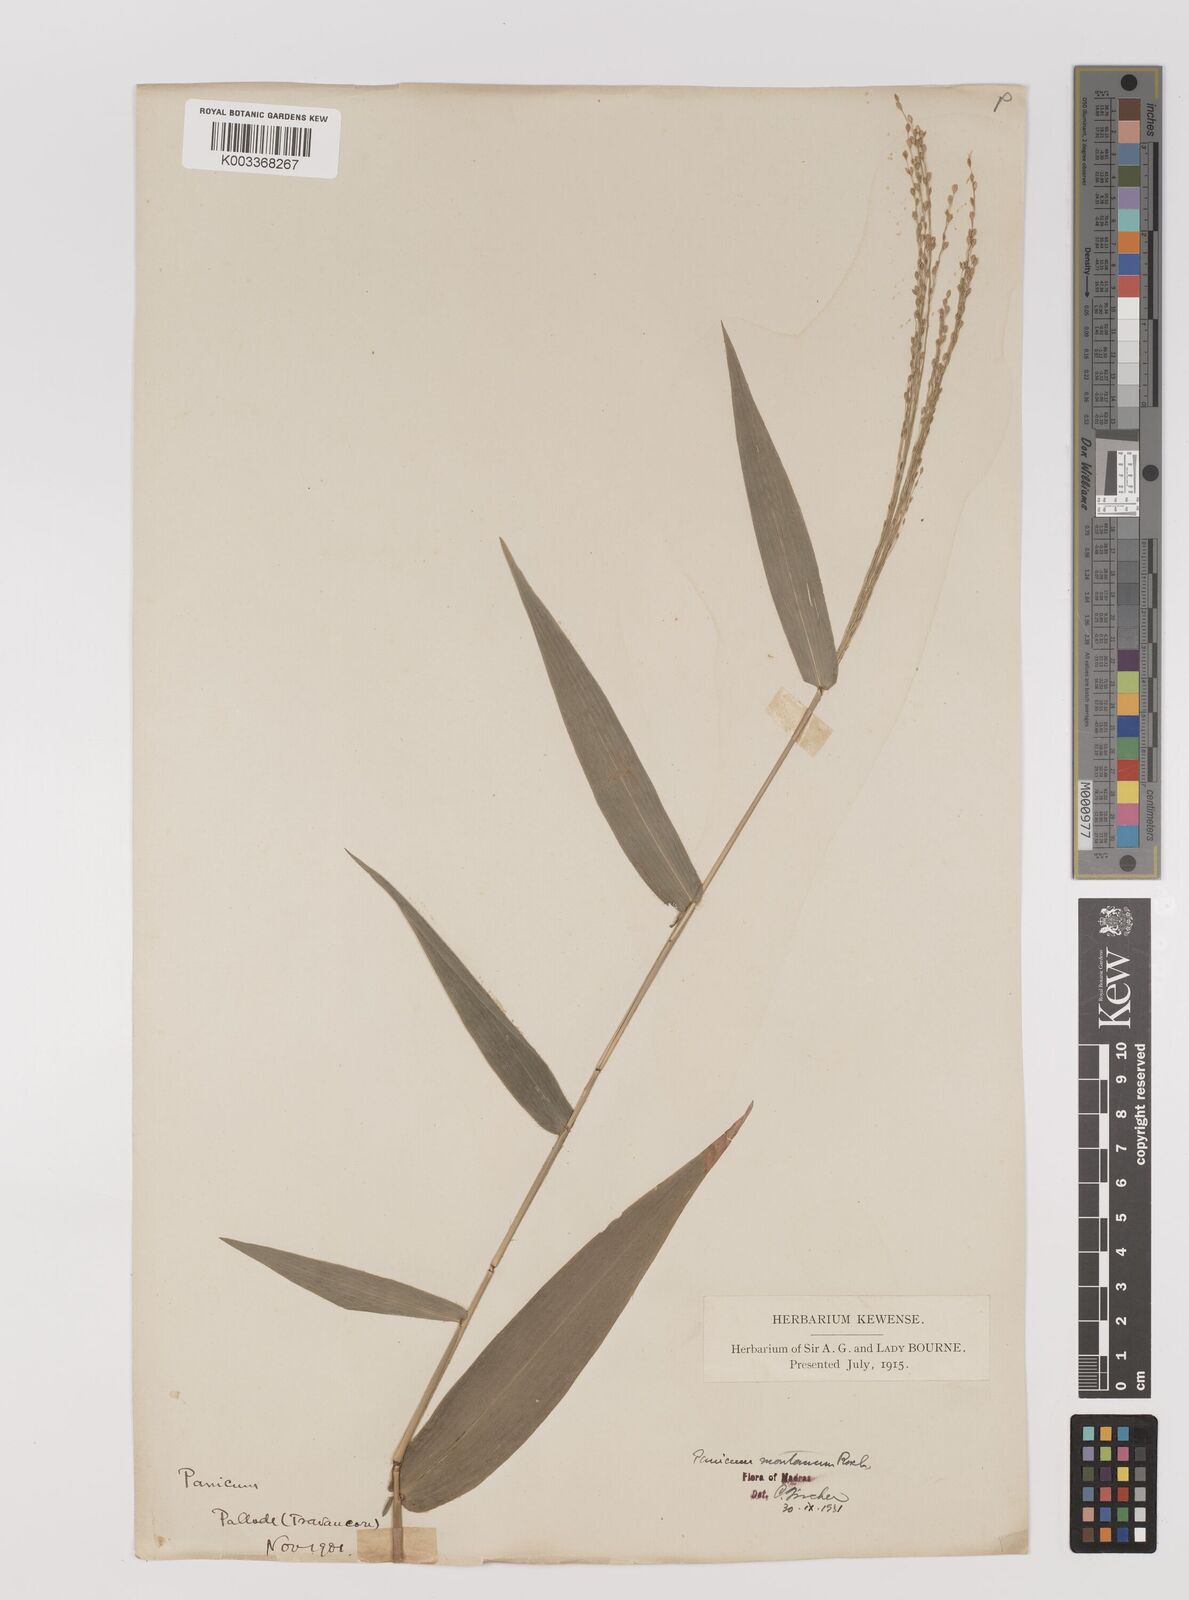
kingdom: Plantae
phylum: Tracheophyta
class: Liliopsida
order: Poales
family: Poaceae
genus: Panicum
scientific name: Panicum notatum
